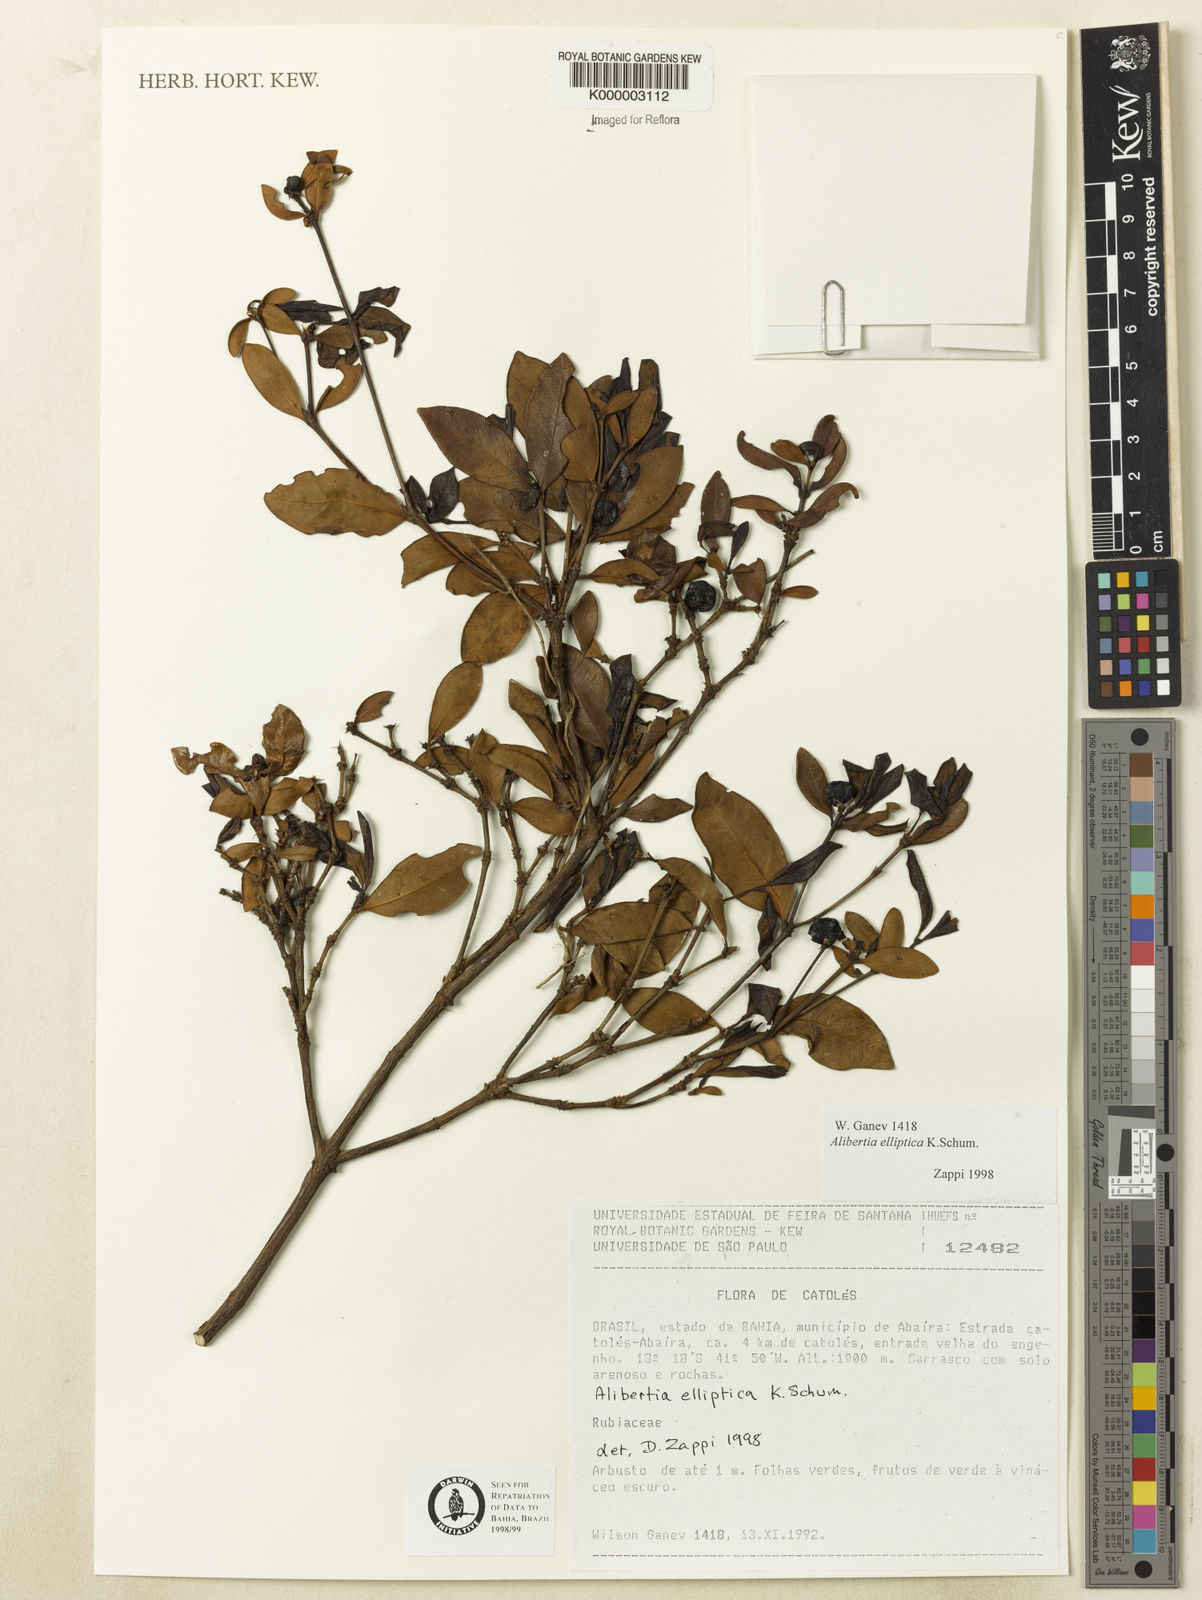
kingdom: Plantae
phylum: Tracheophyta
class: Magnoliopsida
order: Gentianales
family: Rubiaceae
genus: Cordiera
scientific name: Cordiera elliptica
